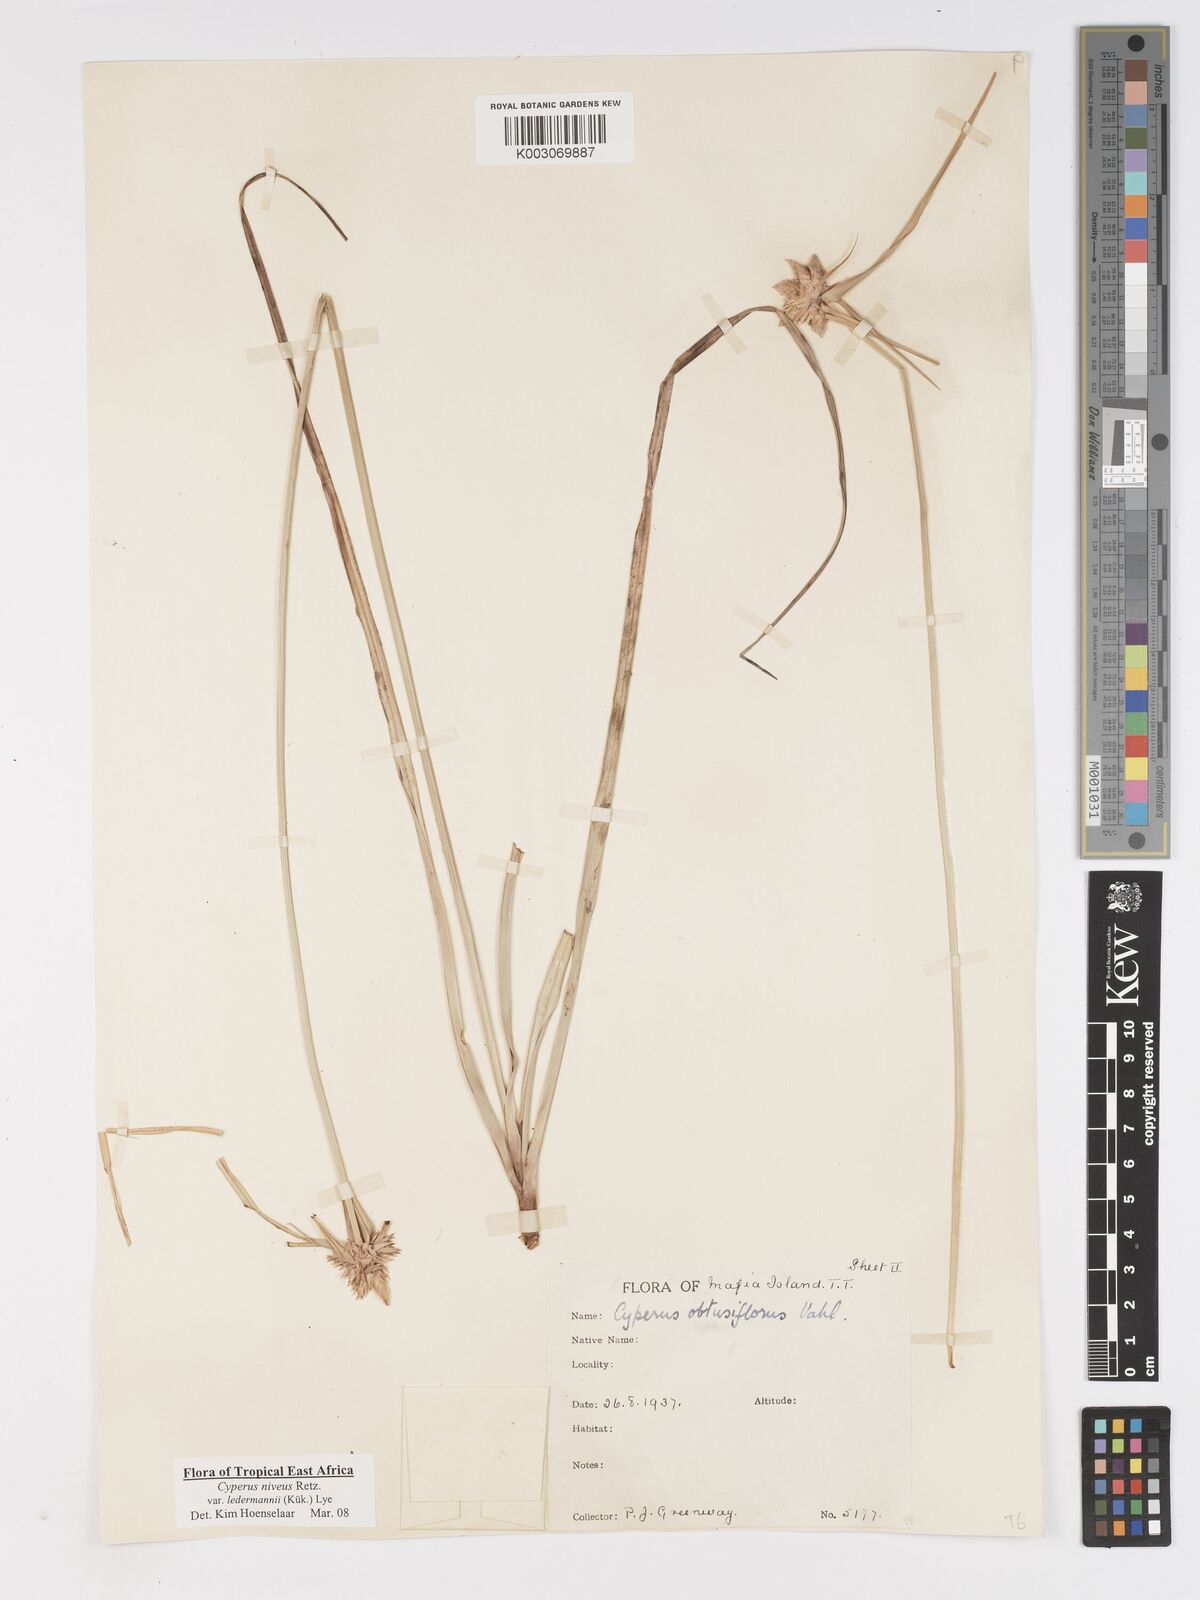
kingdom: Plantae
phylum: Tracheophyta
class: Liliopsida
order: Poales
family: Cyperaceae
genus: Cyperus
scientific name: Cyperus niveus
